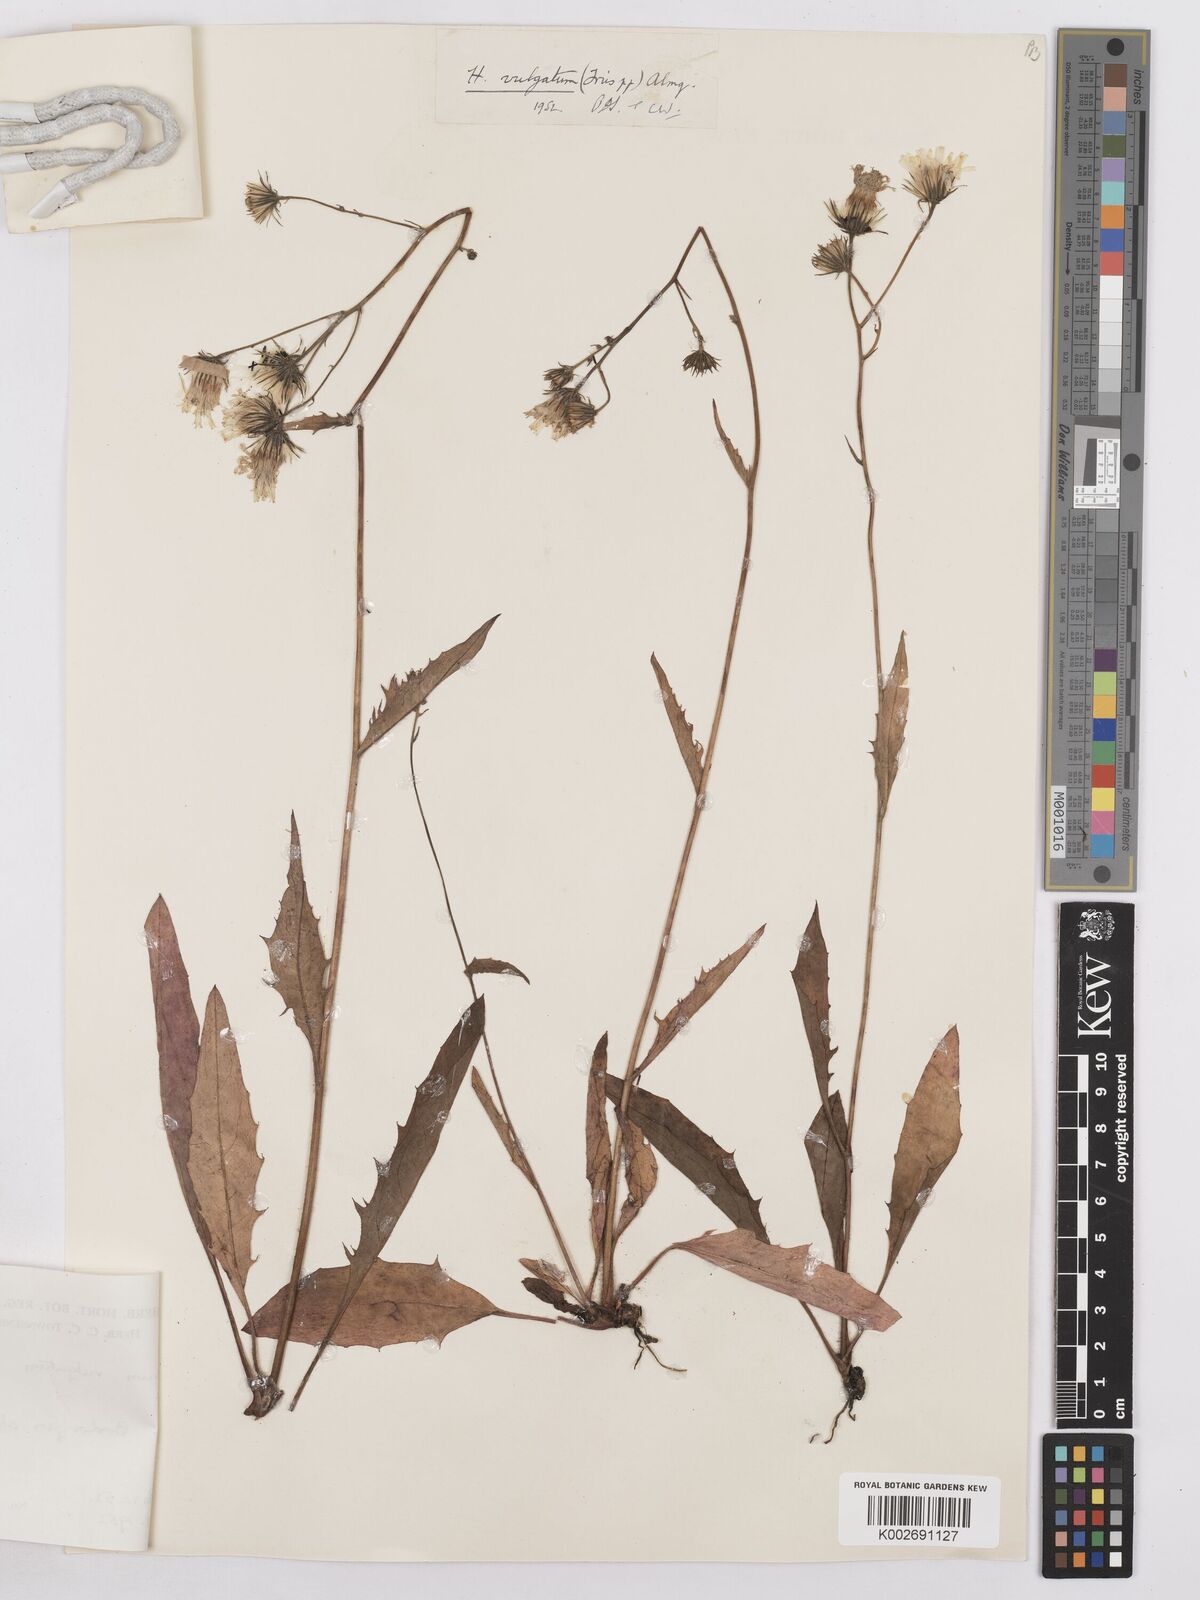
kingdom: Plantae
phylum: Tracheophyta
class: Magnoliopsida
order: Asterales
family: Asteraceae
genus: Hieracium
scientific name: Hieracium lachenalii
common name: Common hawkweed
